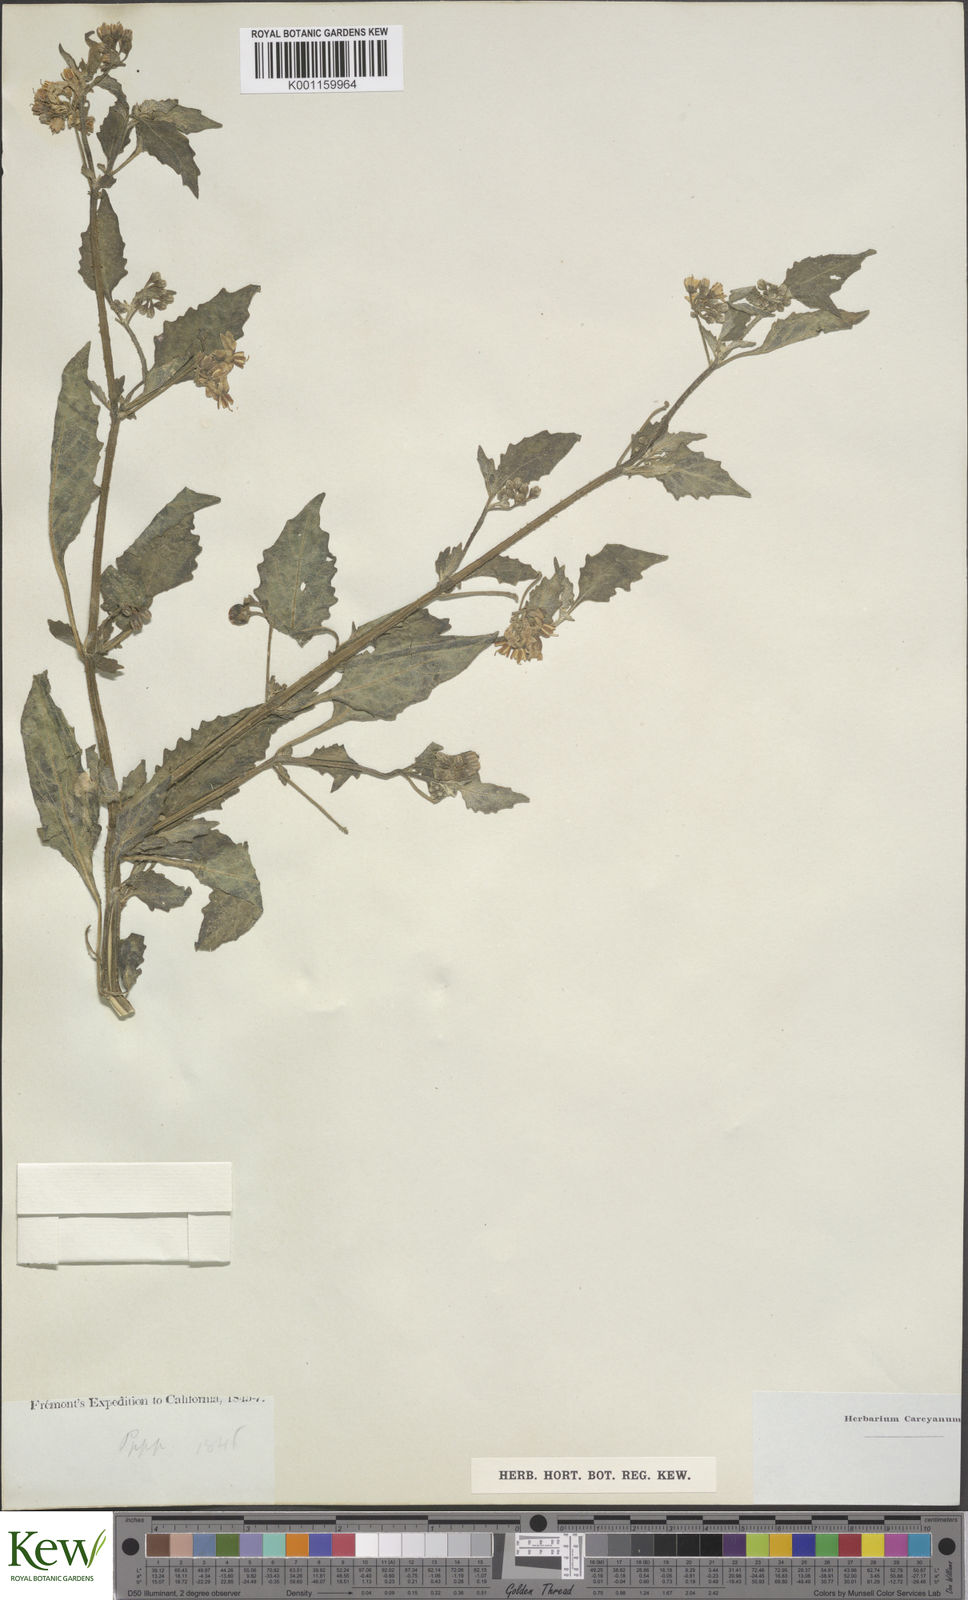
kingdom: Plantae
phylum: Tracheophyta
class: Magnoliopsida
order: Solanales
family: Solanaceae
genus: Solanum
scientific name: Solanum douglasii
